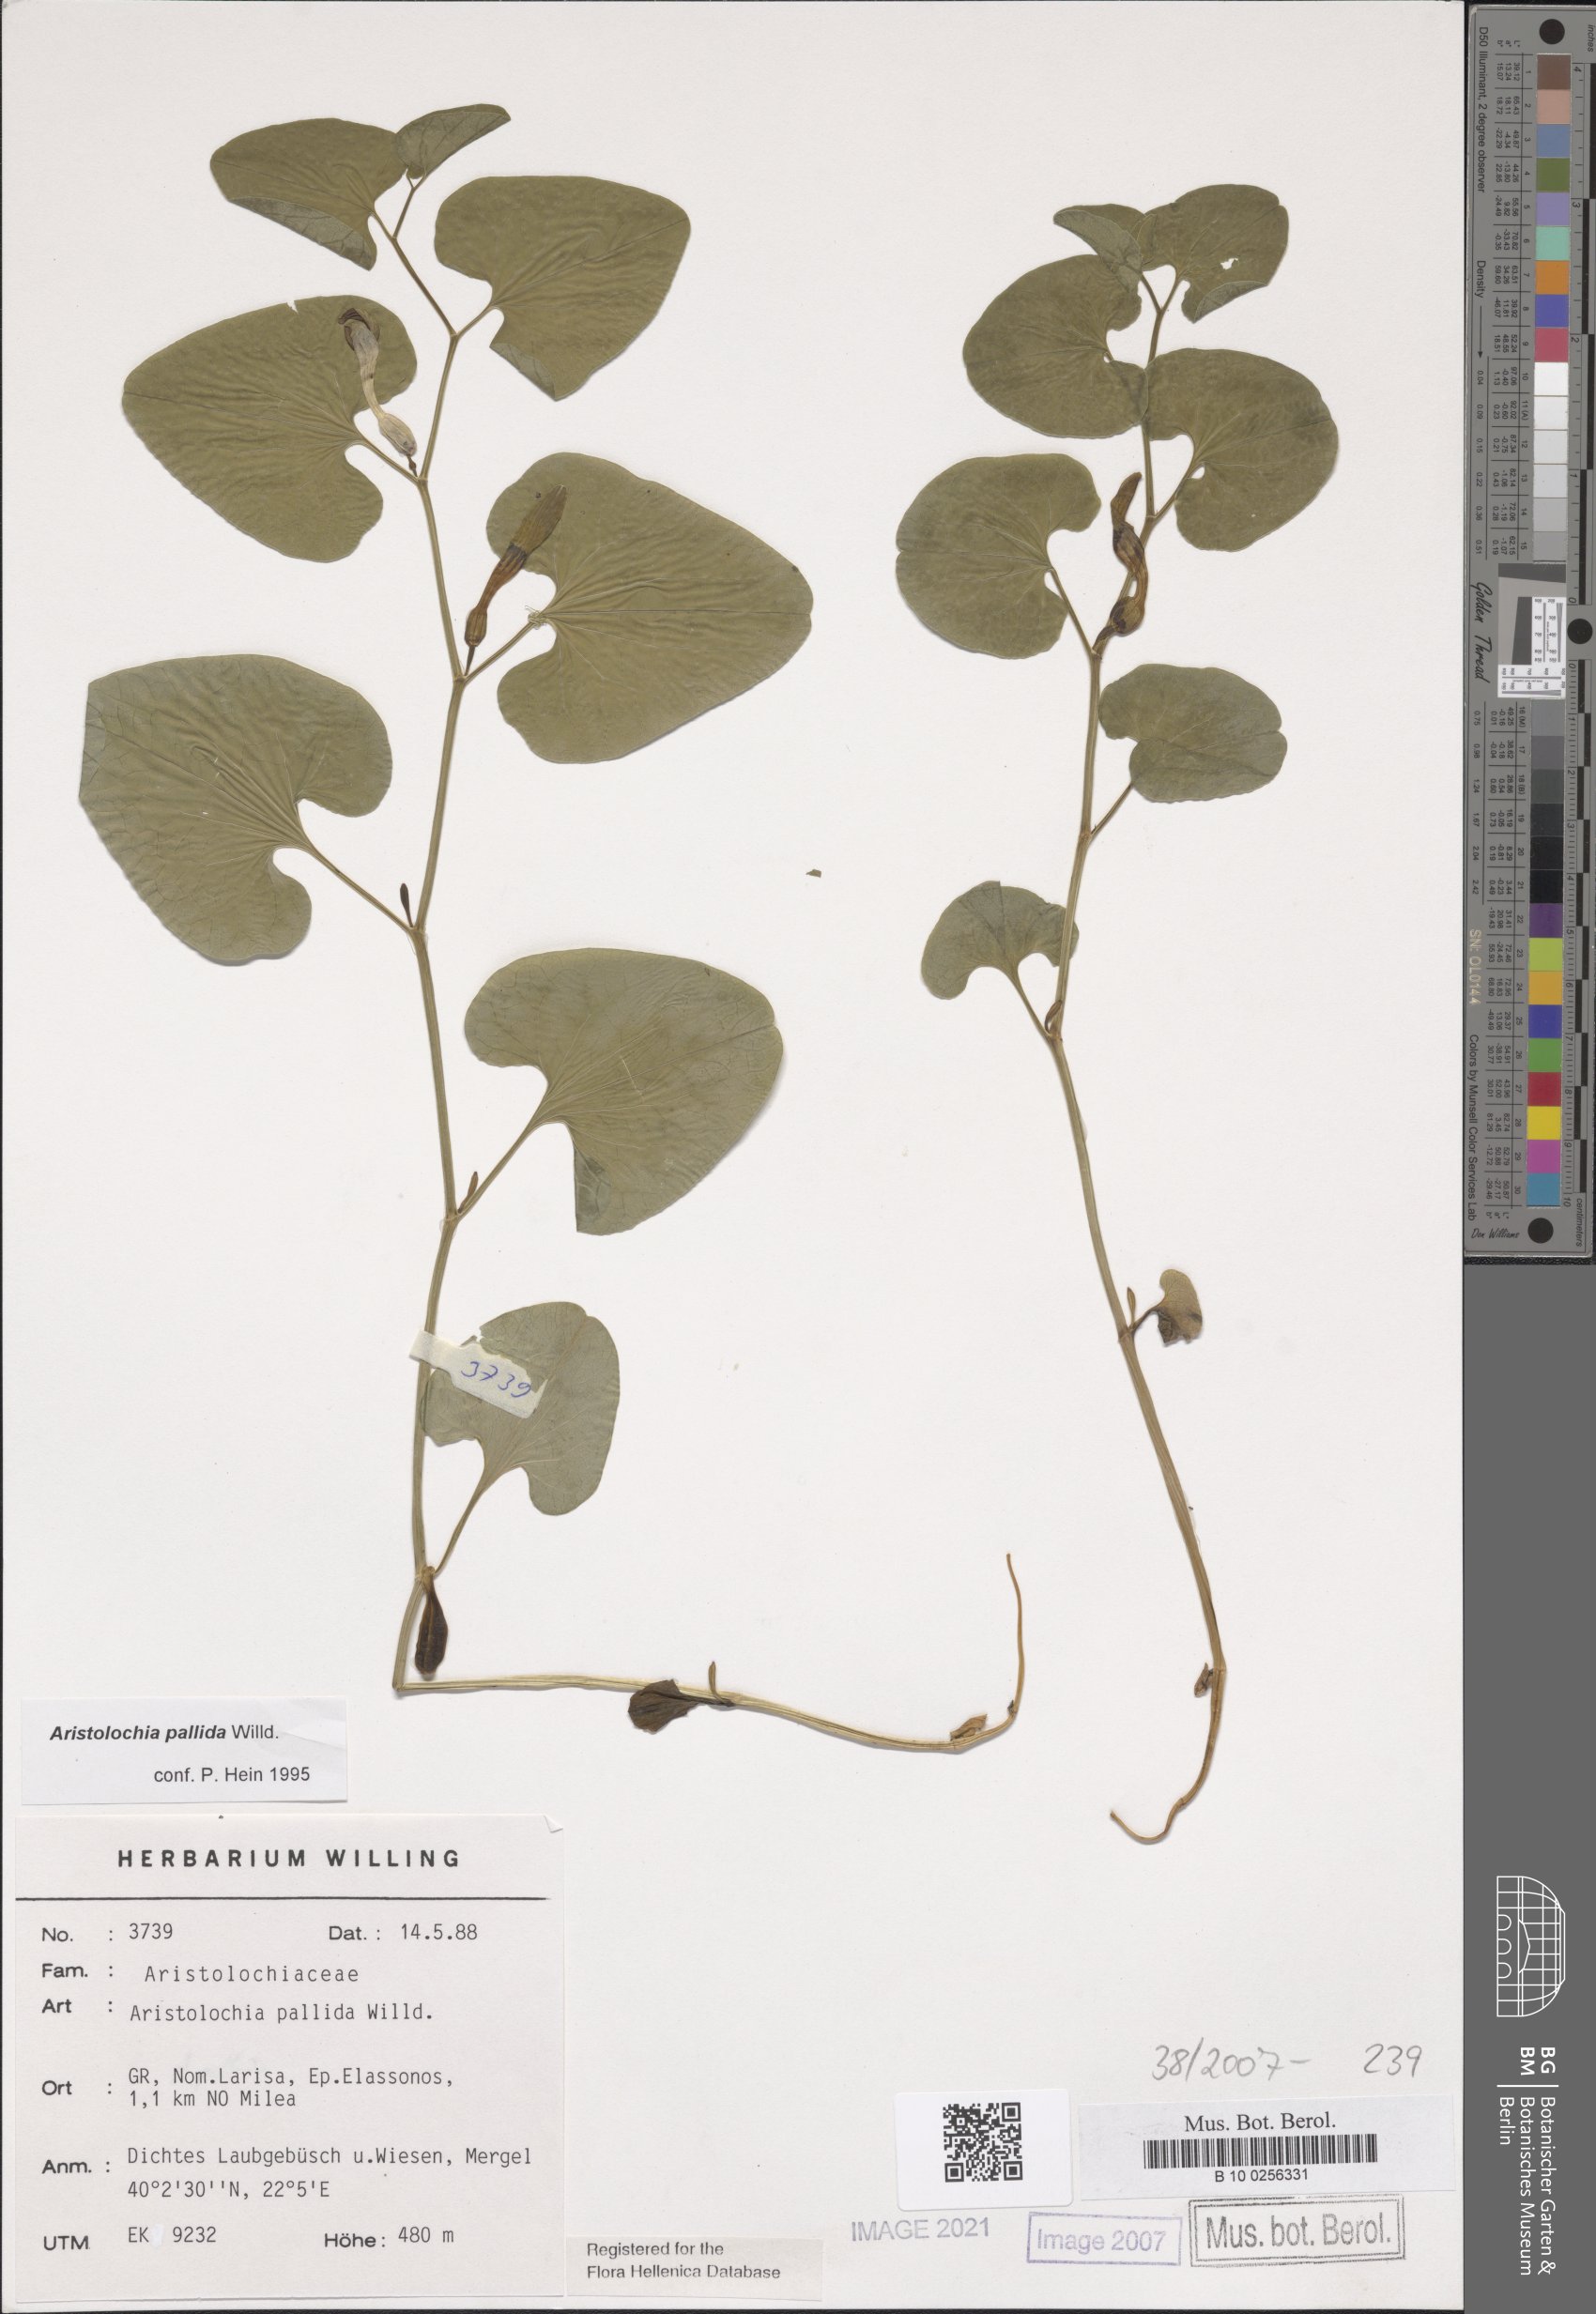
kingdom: Plantae
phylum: Tracheophyta
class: Magnoliopsida
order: Piperales
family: Aristolochiaceae
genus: Aristolochia
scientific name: Aristolochia pallida
